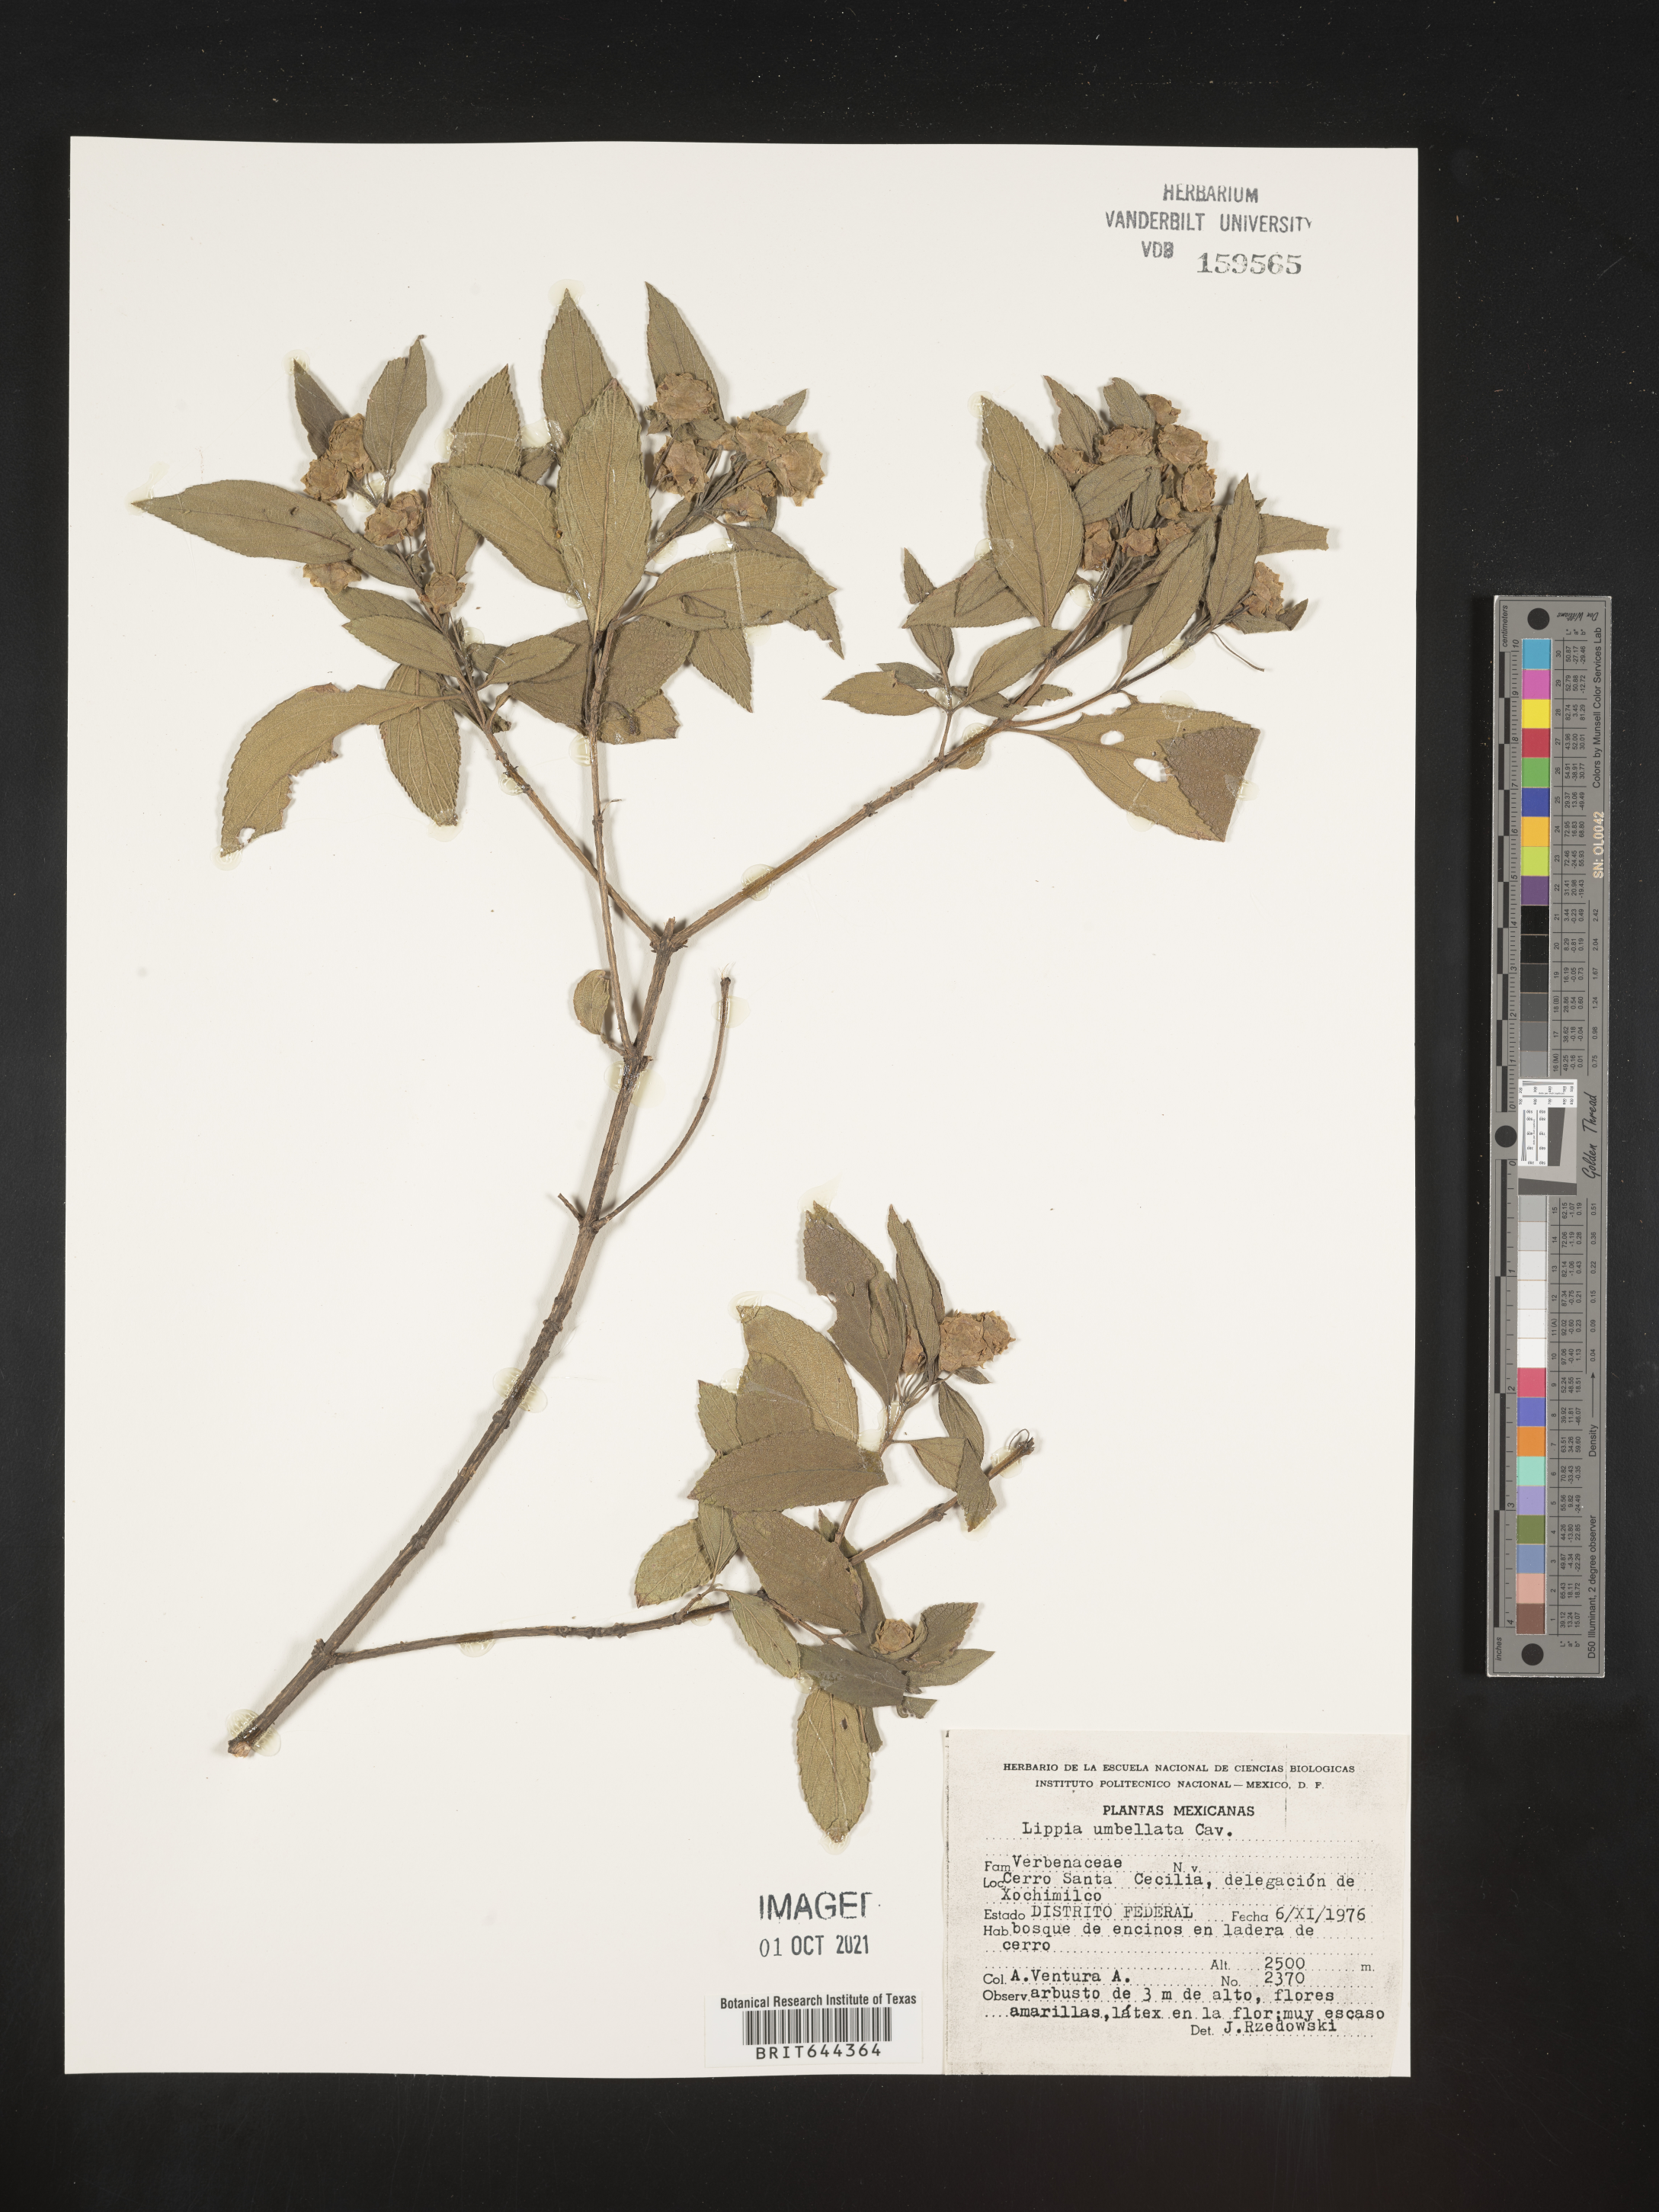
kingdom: Plantae
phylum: Tracheophyta
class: Magnoliopsida
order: Lamiales
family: Verbenaceae
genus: Lippia
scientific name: Lippia
